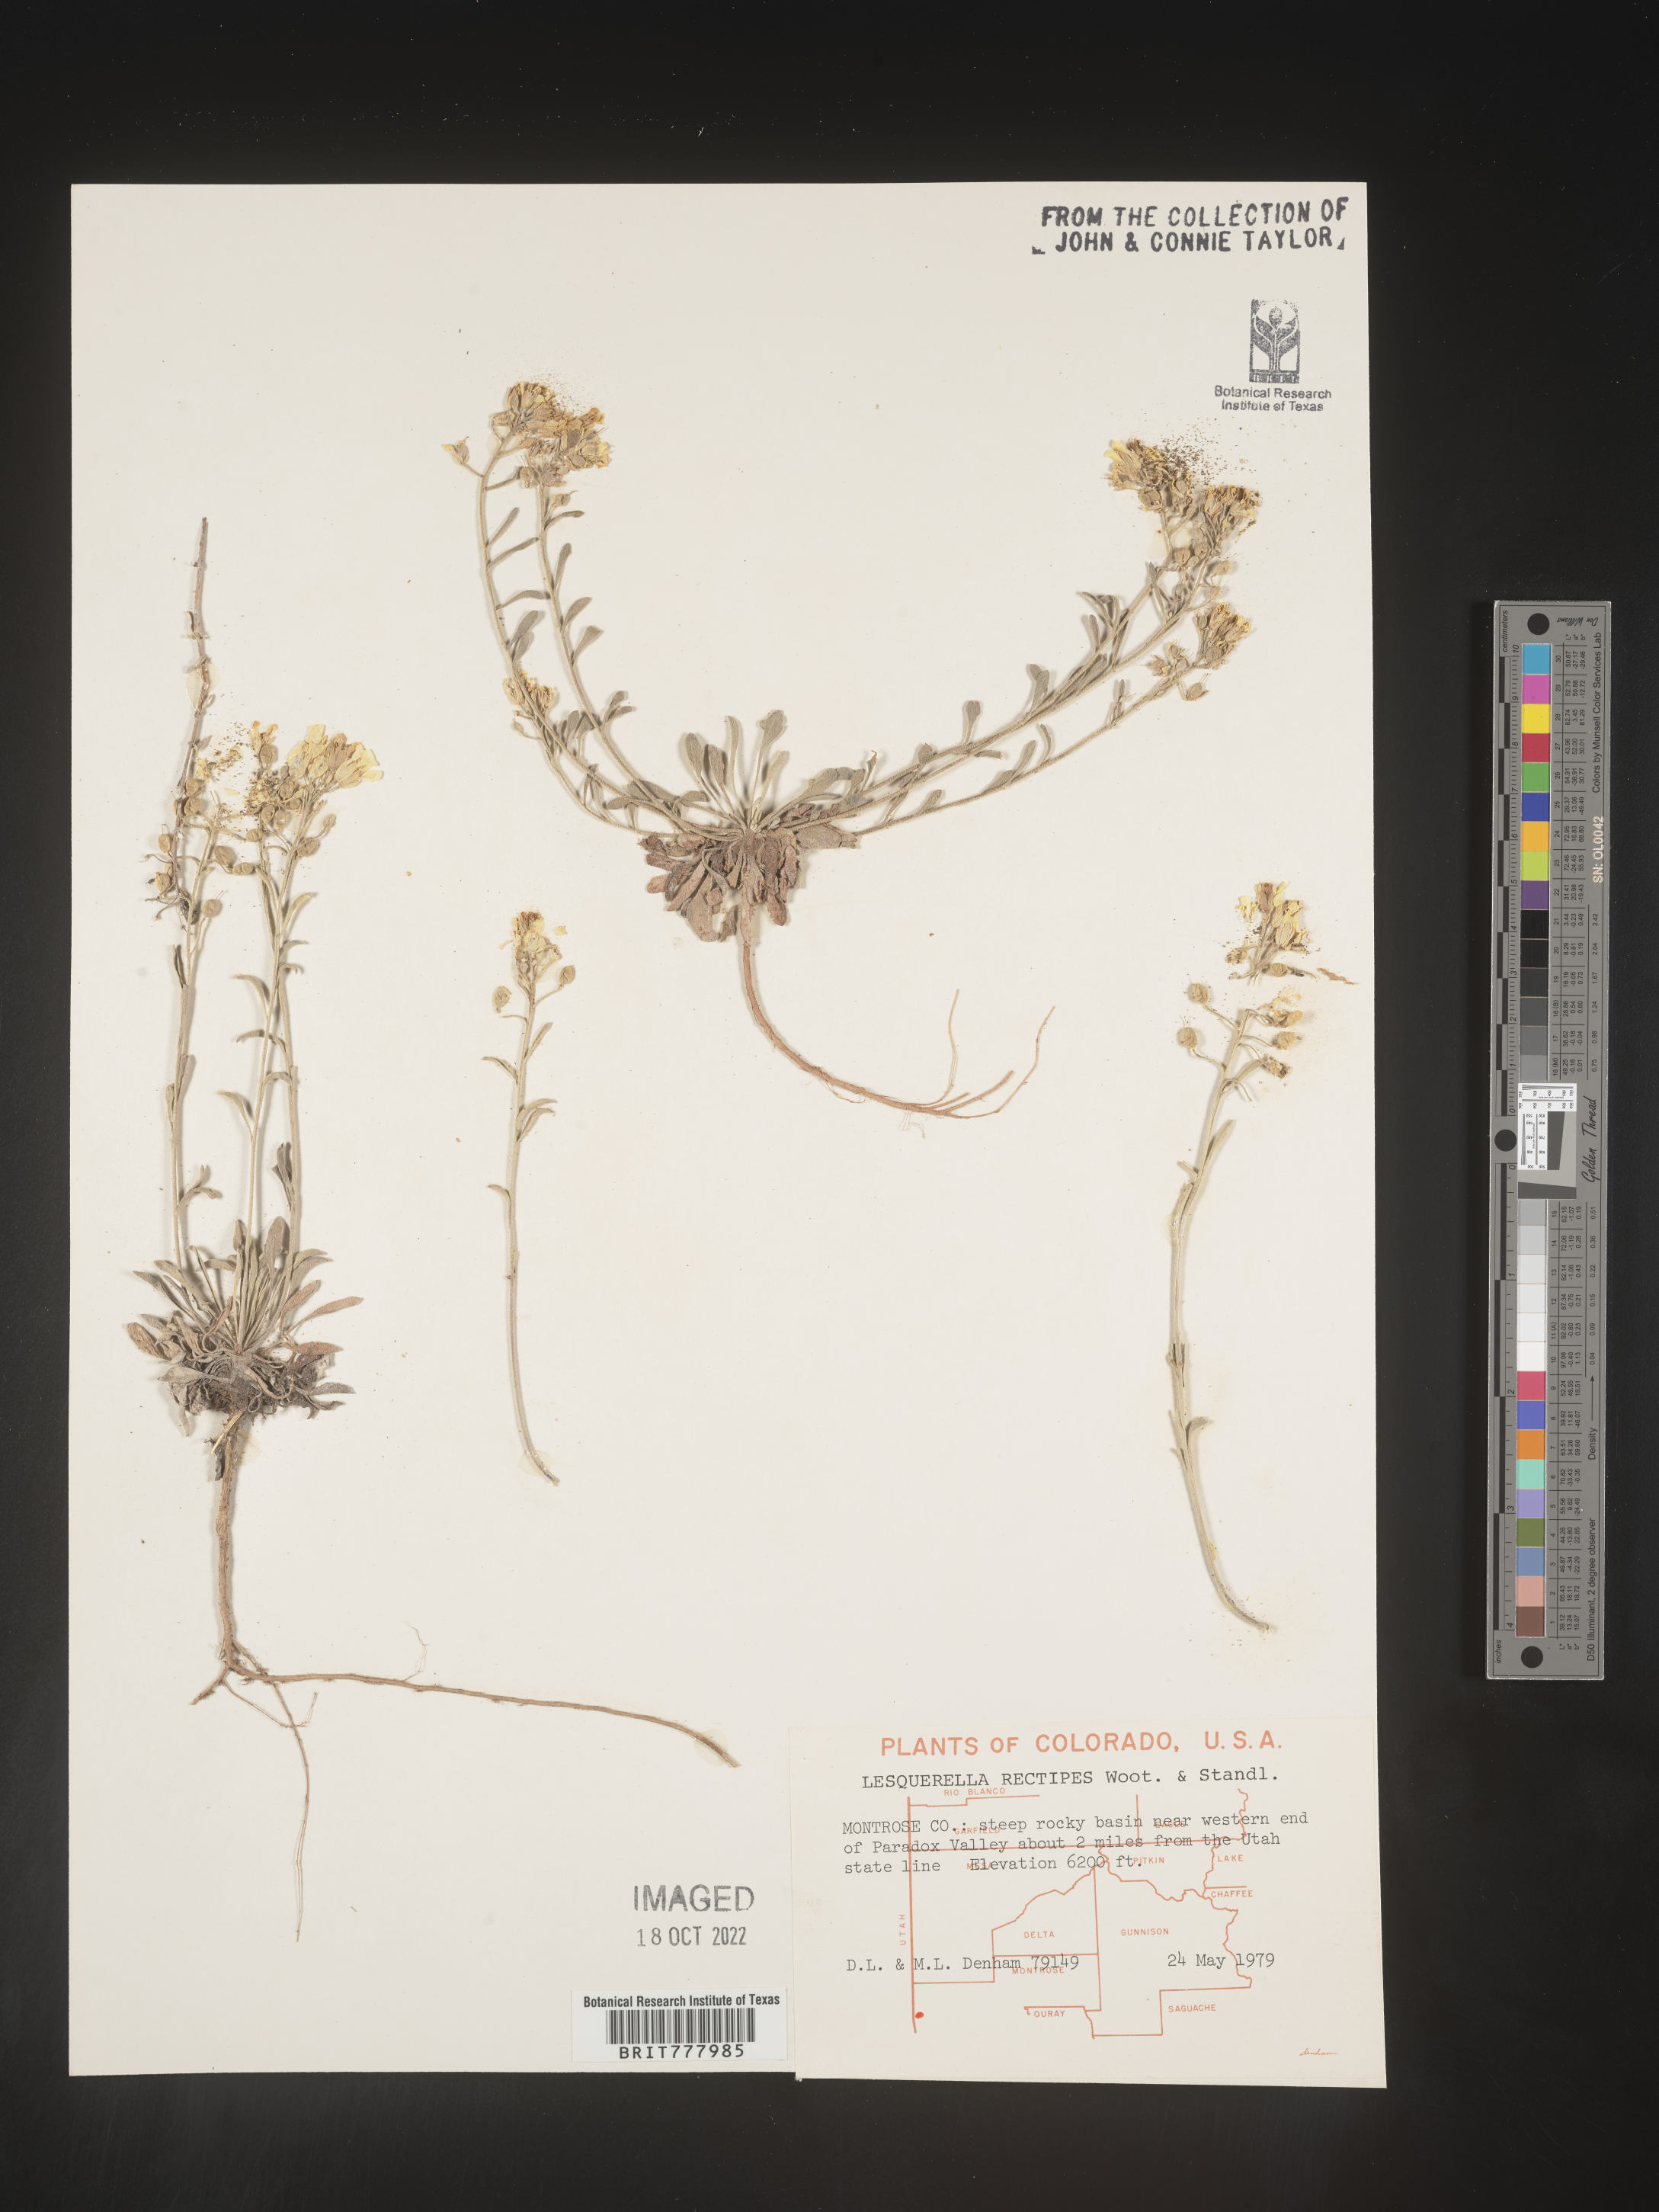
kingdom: Chromista
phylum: Cercozoa
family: Psammonobiotidae
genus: Lesquerella
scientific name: Lesquerella
